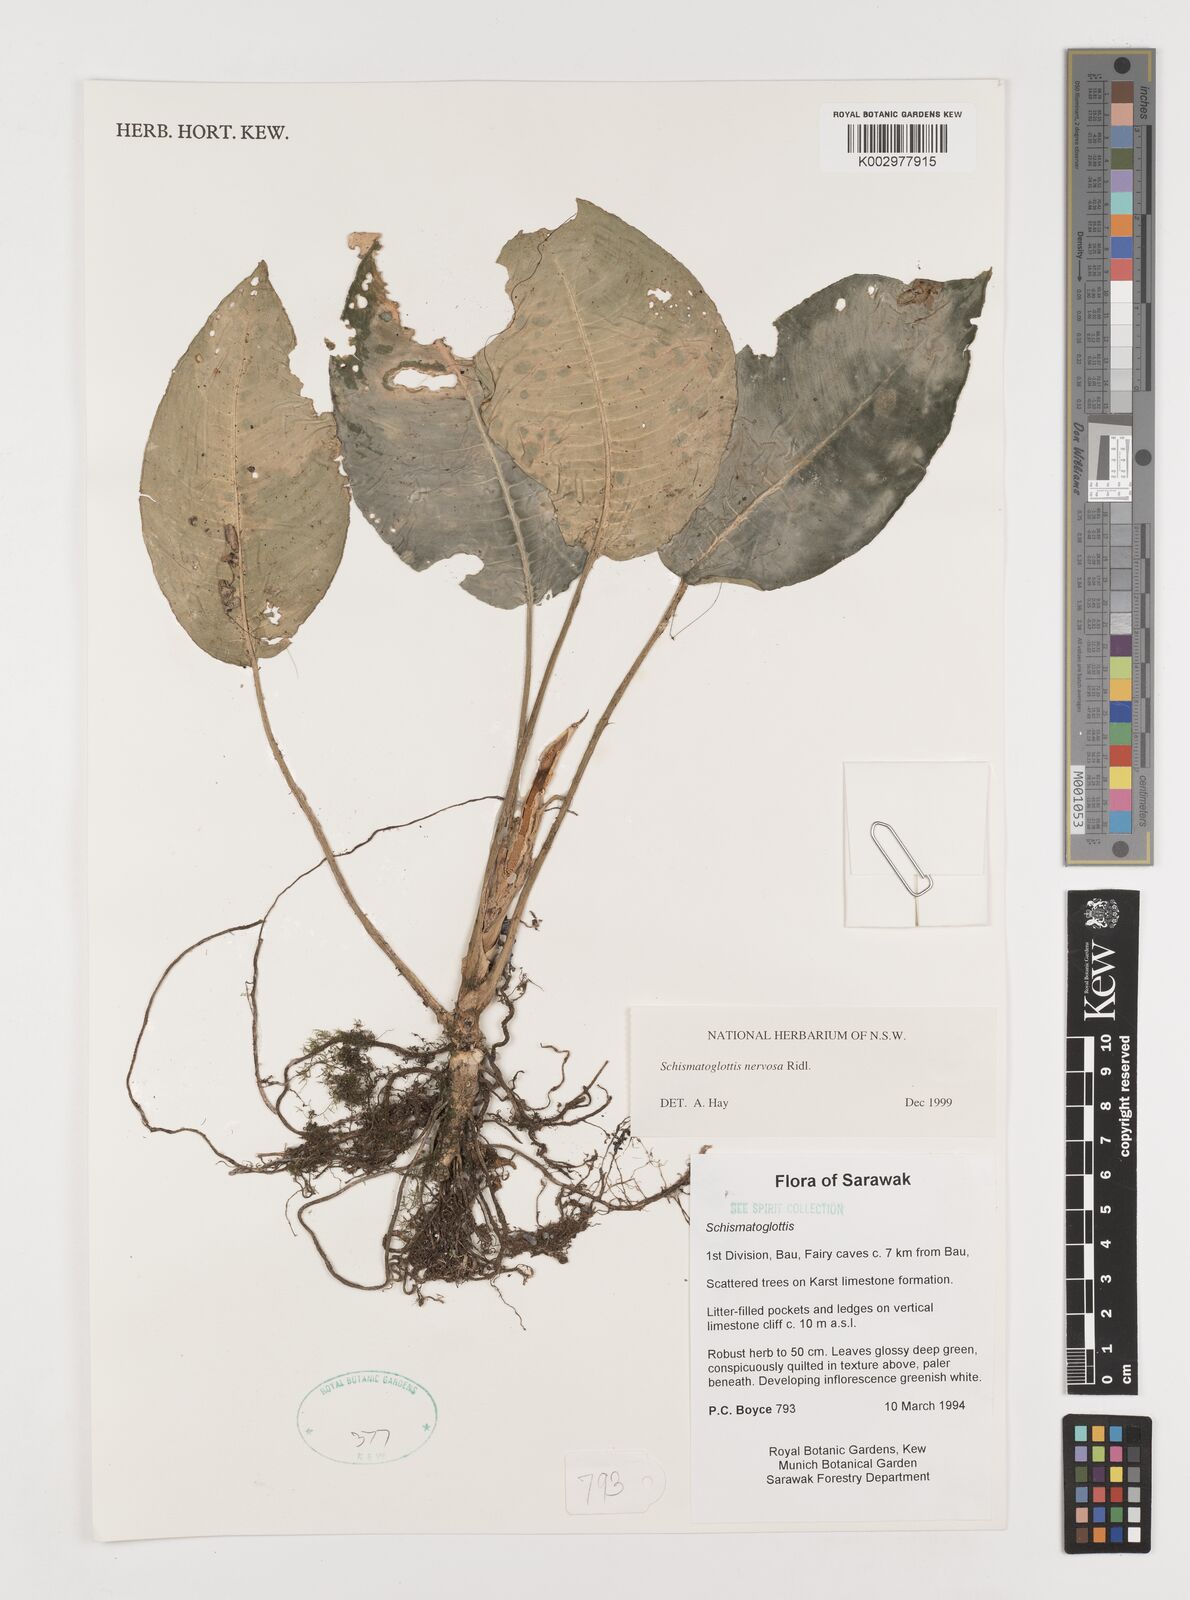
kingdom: Plantae
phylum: Tracheophyta
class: Liliopsida
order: Alismatales
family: Araceae
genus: Schismatoglottis
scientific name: Schismatoglottis nervosa
